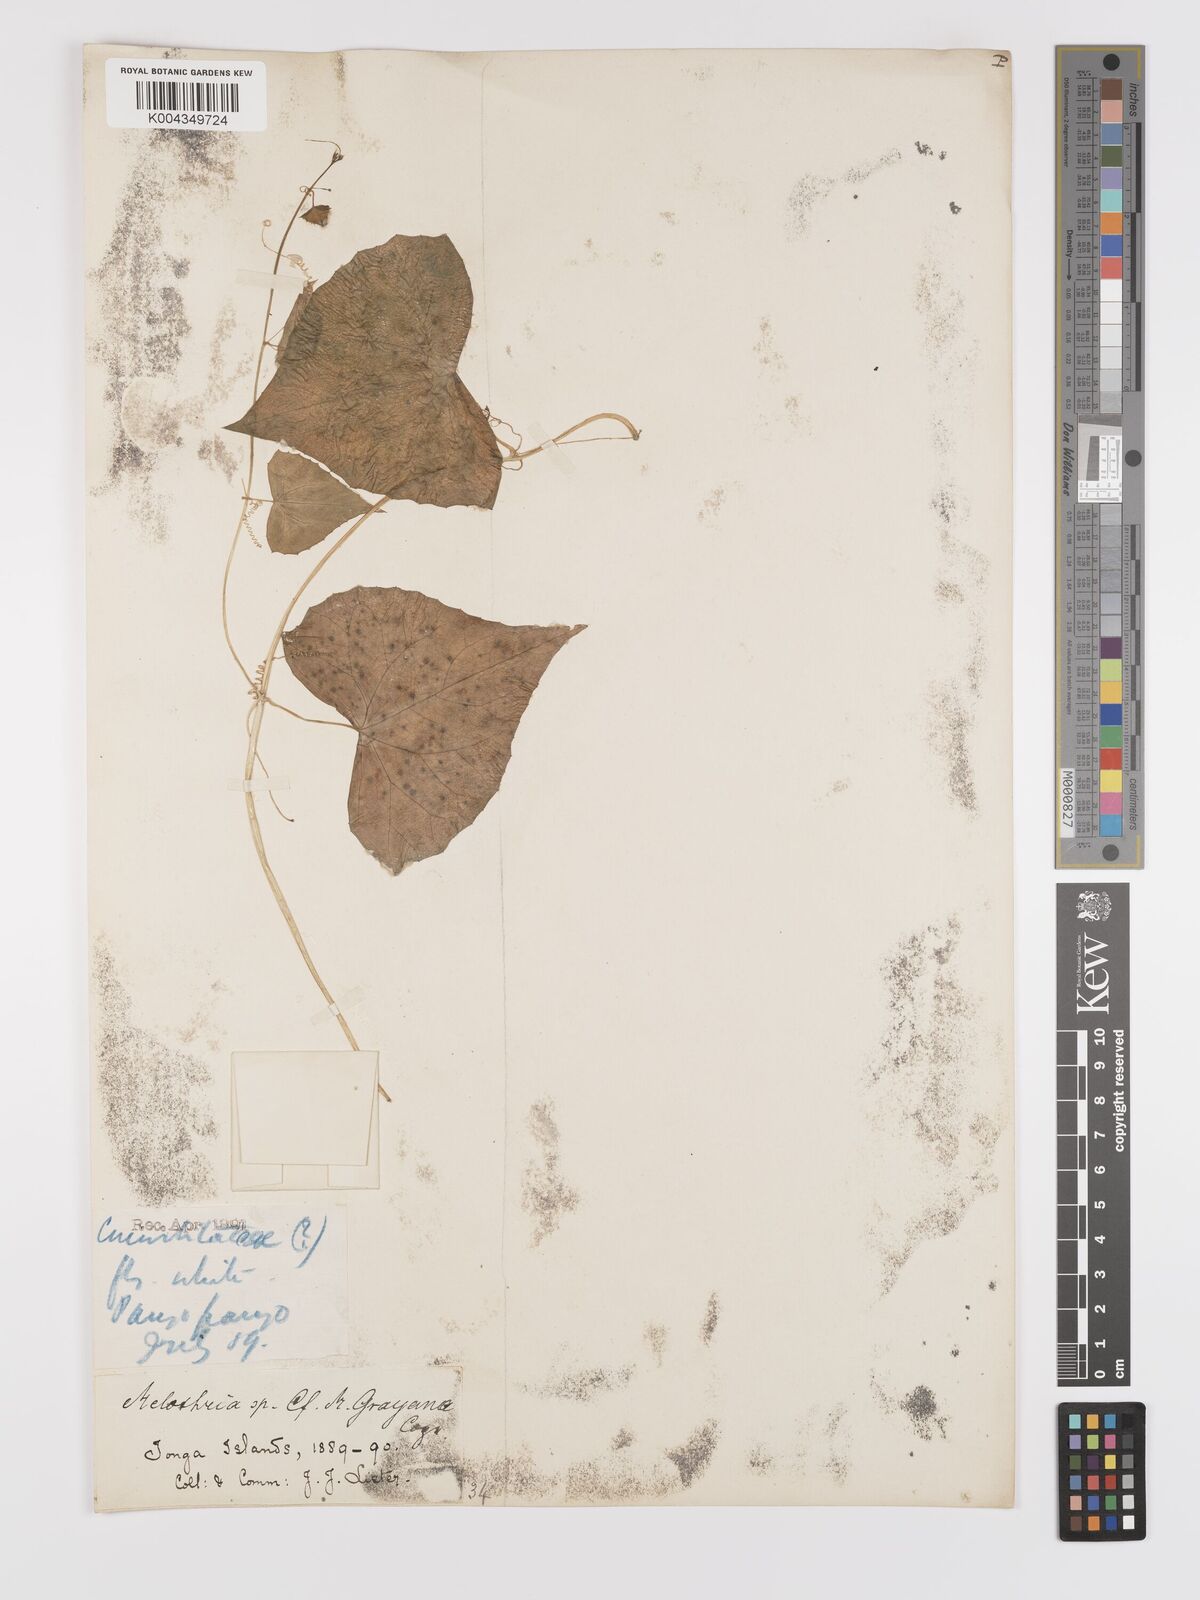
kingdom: Plantae
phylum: Tracheophyta
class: Magnoliopsida
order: Cucurbitales
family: Cucurbitaceae
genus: Zehneria
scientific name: Zehneria mucronata
